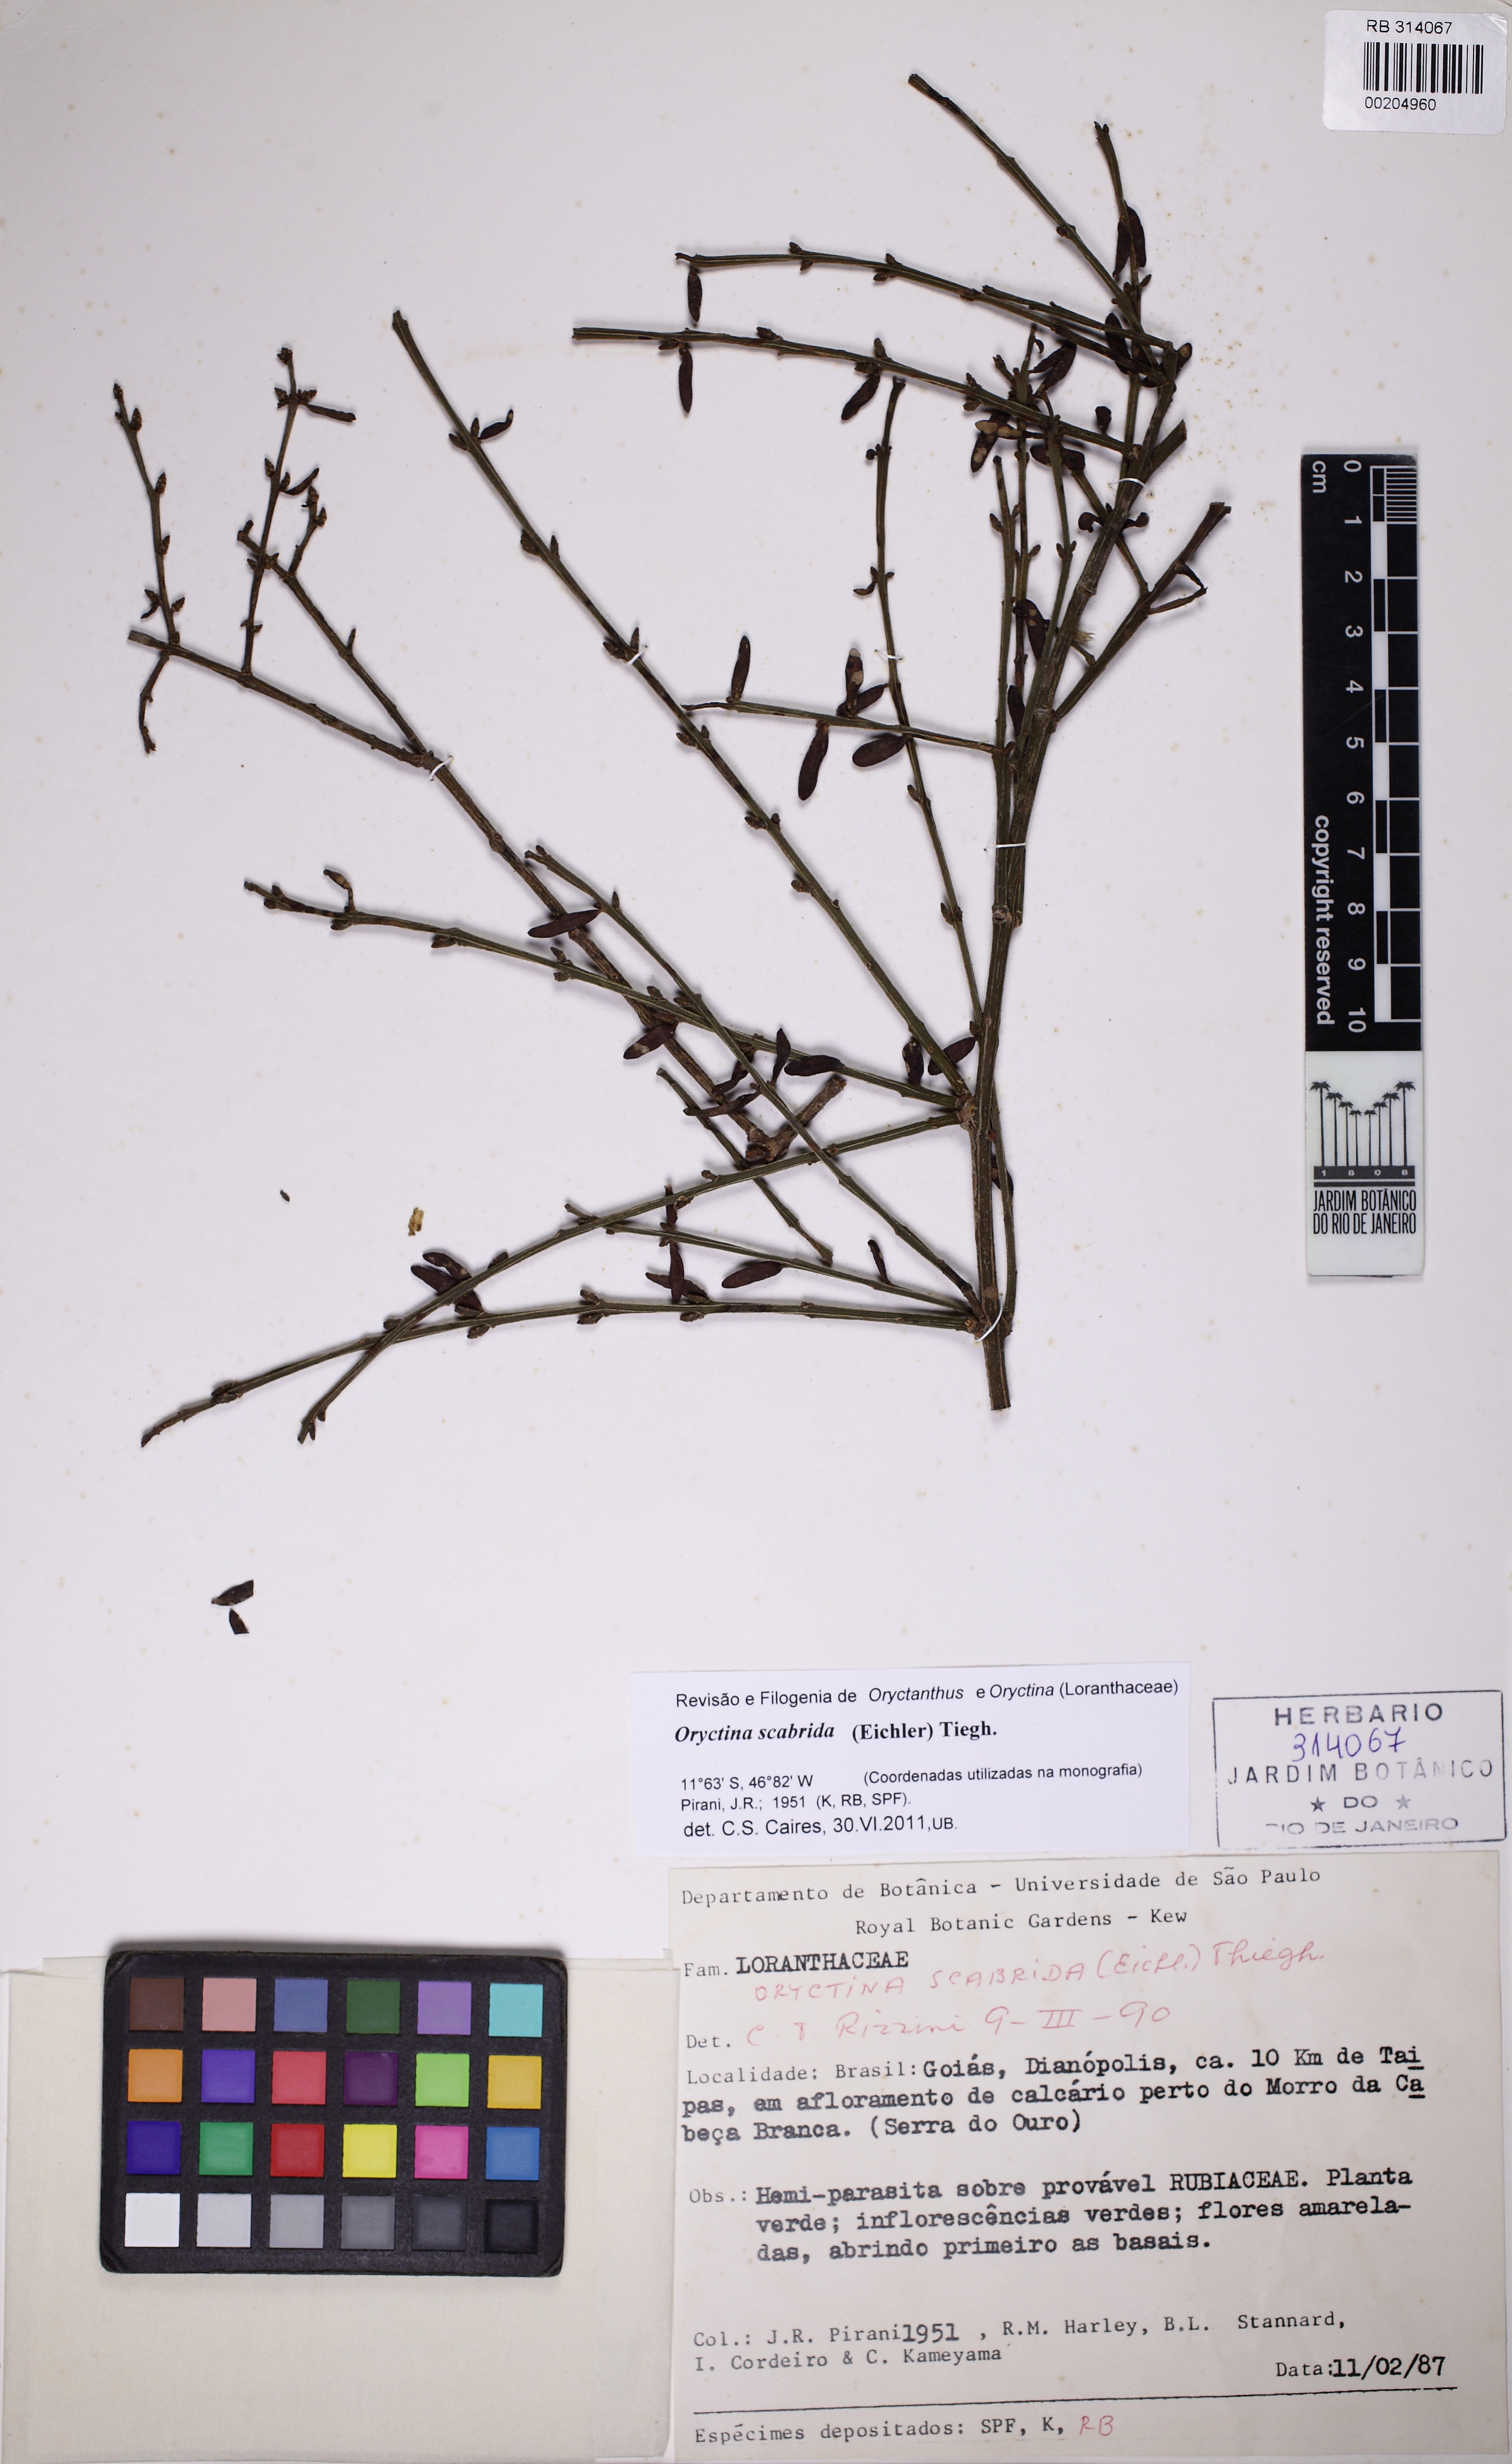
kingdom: Plantae
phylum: Tracheophyta
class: Magnoliopsida
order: Santalales
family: Loranthaceae
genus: Oryctina
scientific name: Oryctina scabrida
